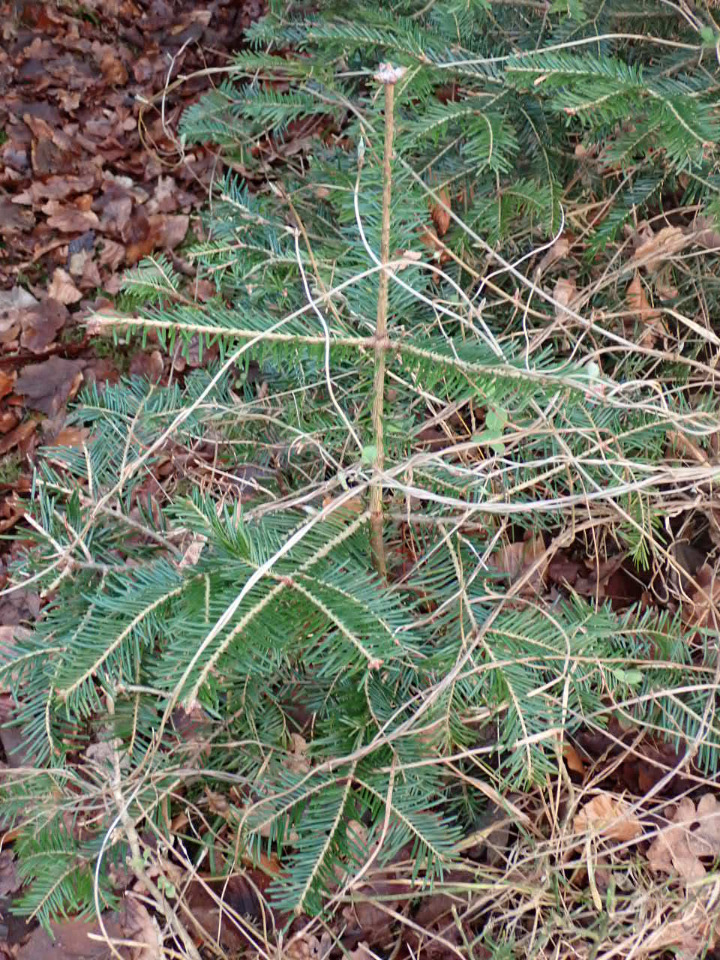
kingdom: Plantae
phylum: Tracheophyta
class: Pinopsida
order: Pinales
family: Pinaceae
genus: Abies
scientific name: Abies alba
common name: Almindelig ædelgran
